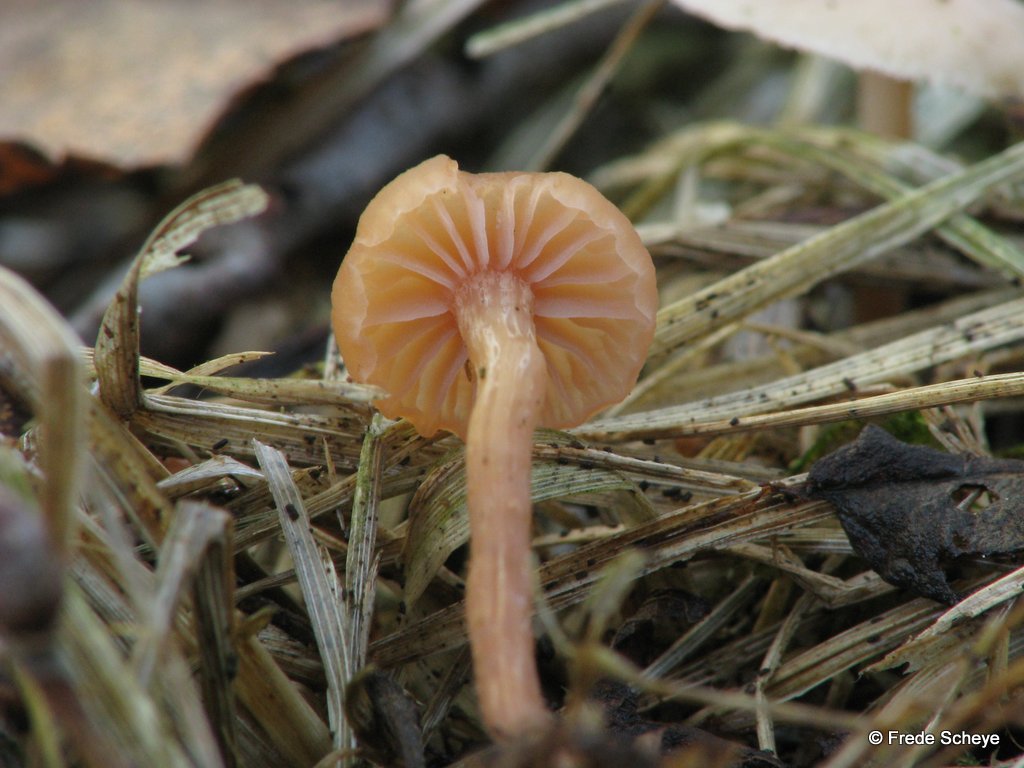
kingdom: Fungi
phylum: Basidiomycota
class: Agaricomycetes
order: Agaricales
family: Hydnangiaceae
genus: Laccaria
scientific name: Laccaria laccata
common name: rød ametysthat
